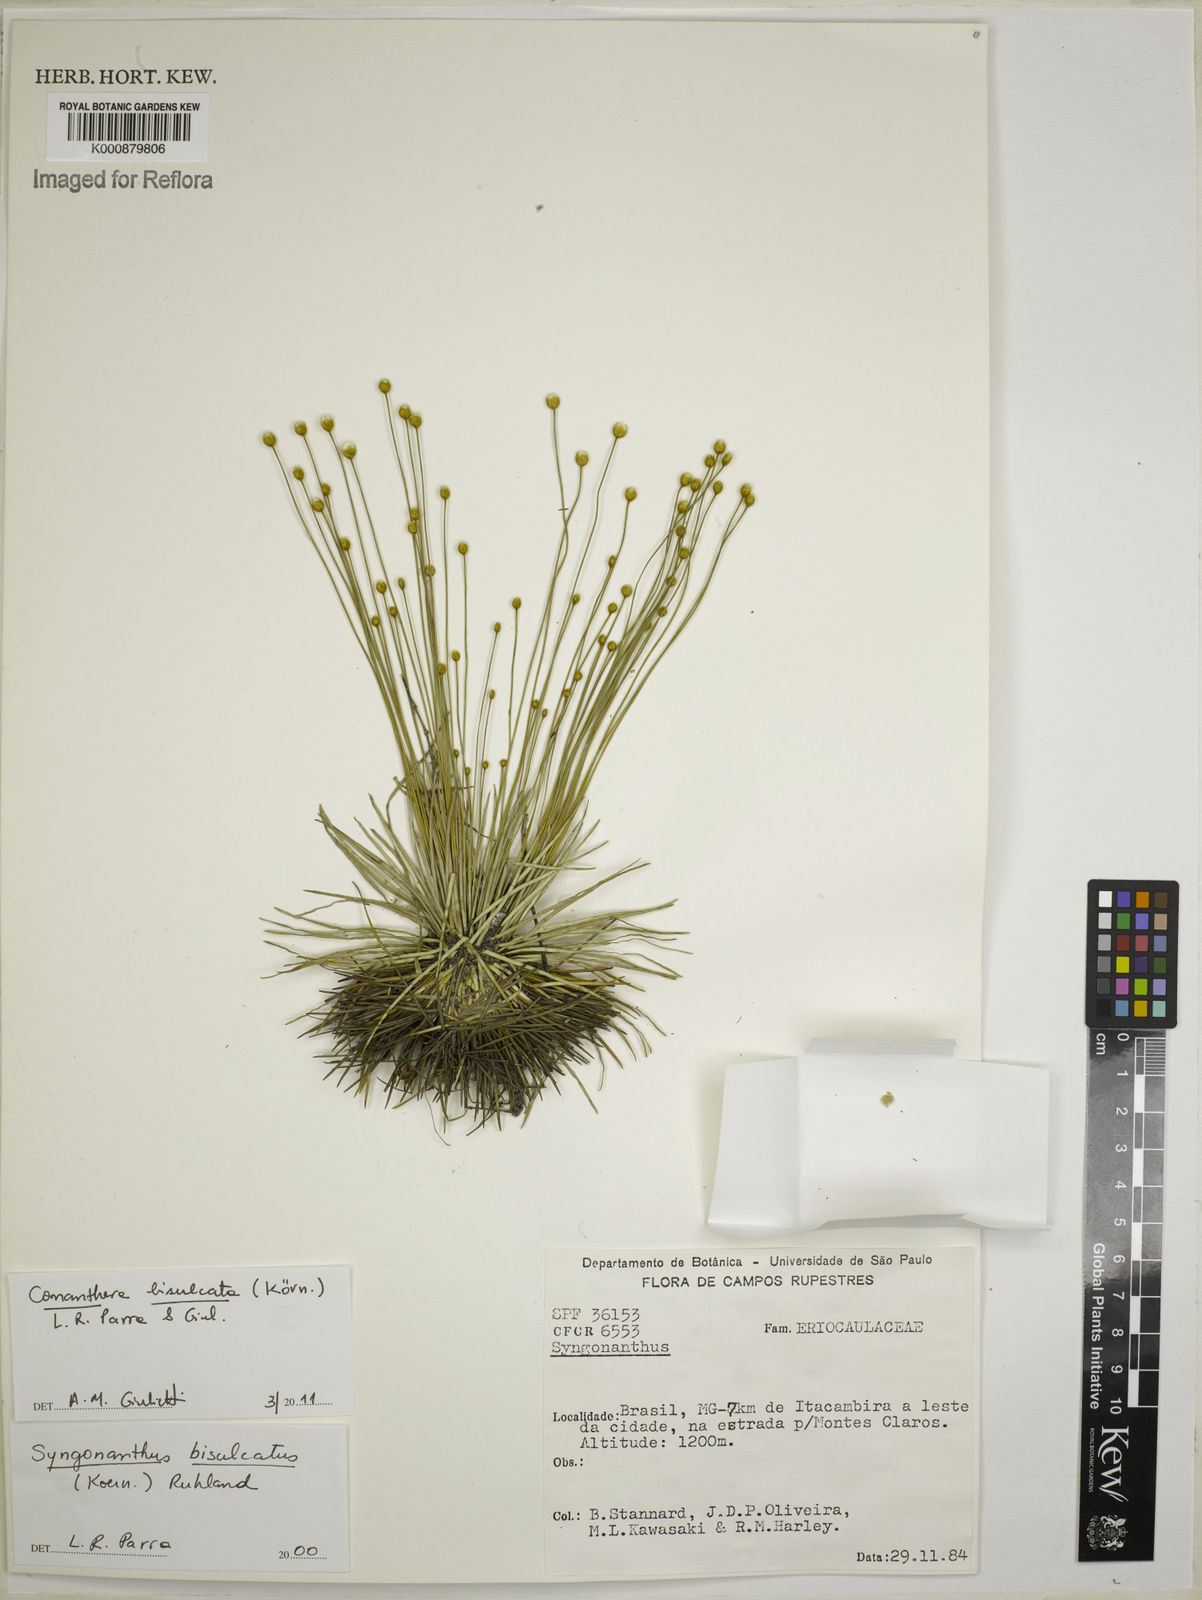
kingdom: Plantae
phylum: Tracheophyta
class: Liliopsida
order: Poales
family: Eriocaulaceae
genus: Comanthera
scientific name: Comanthera
